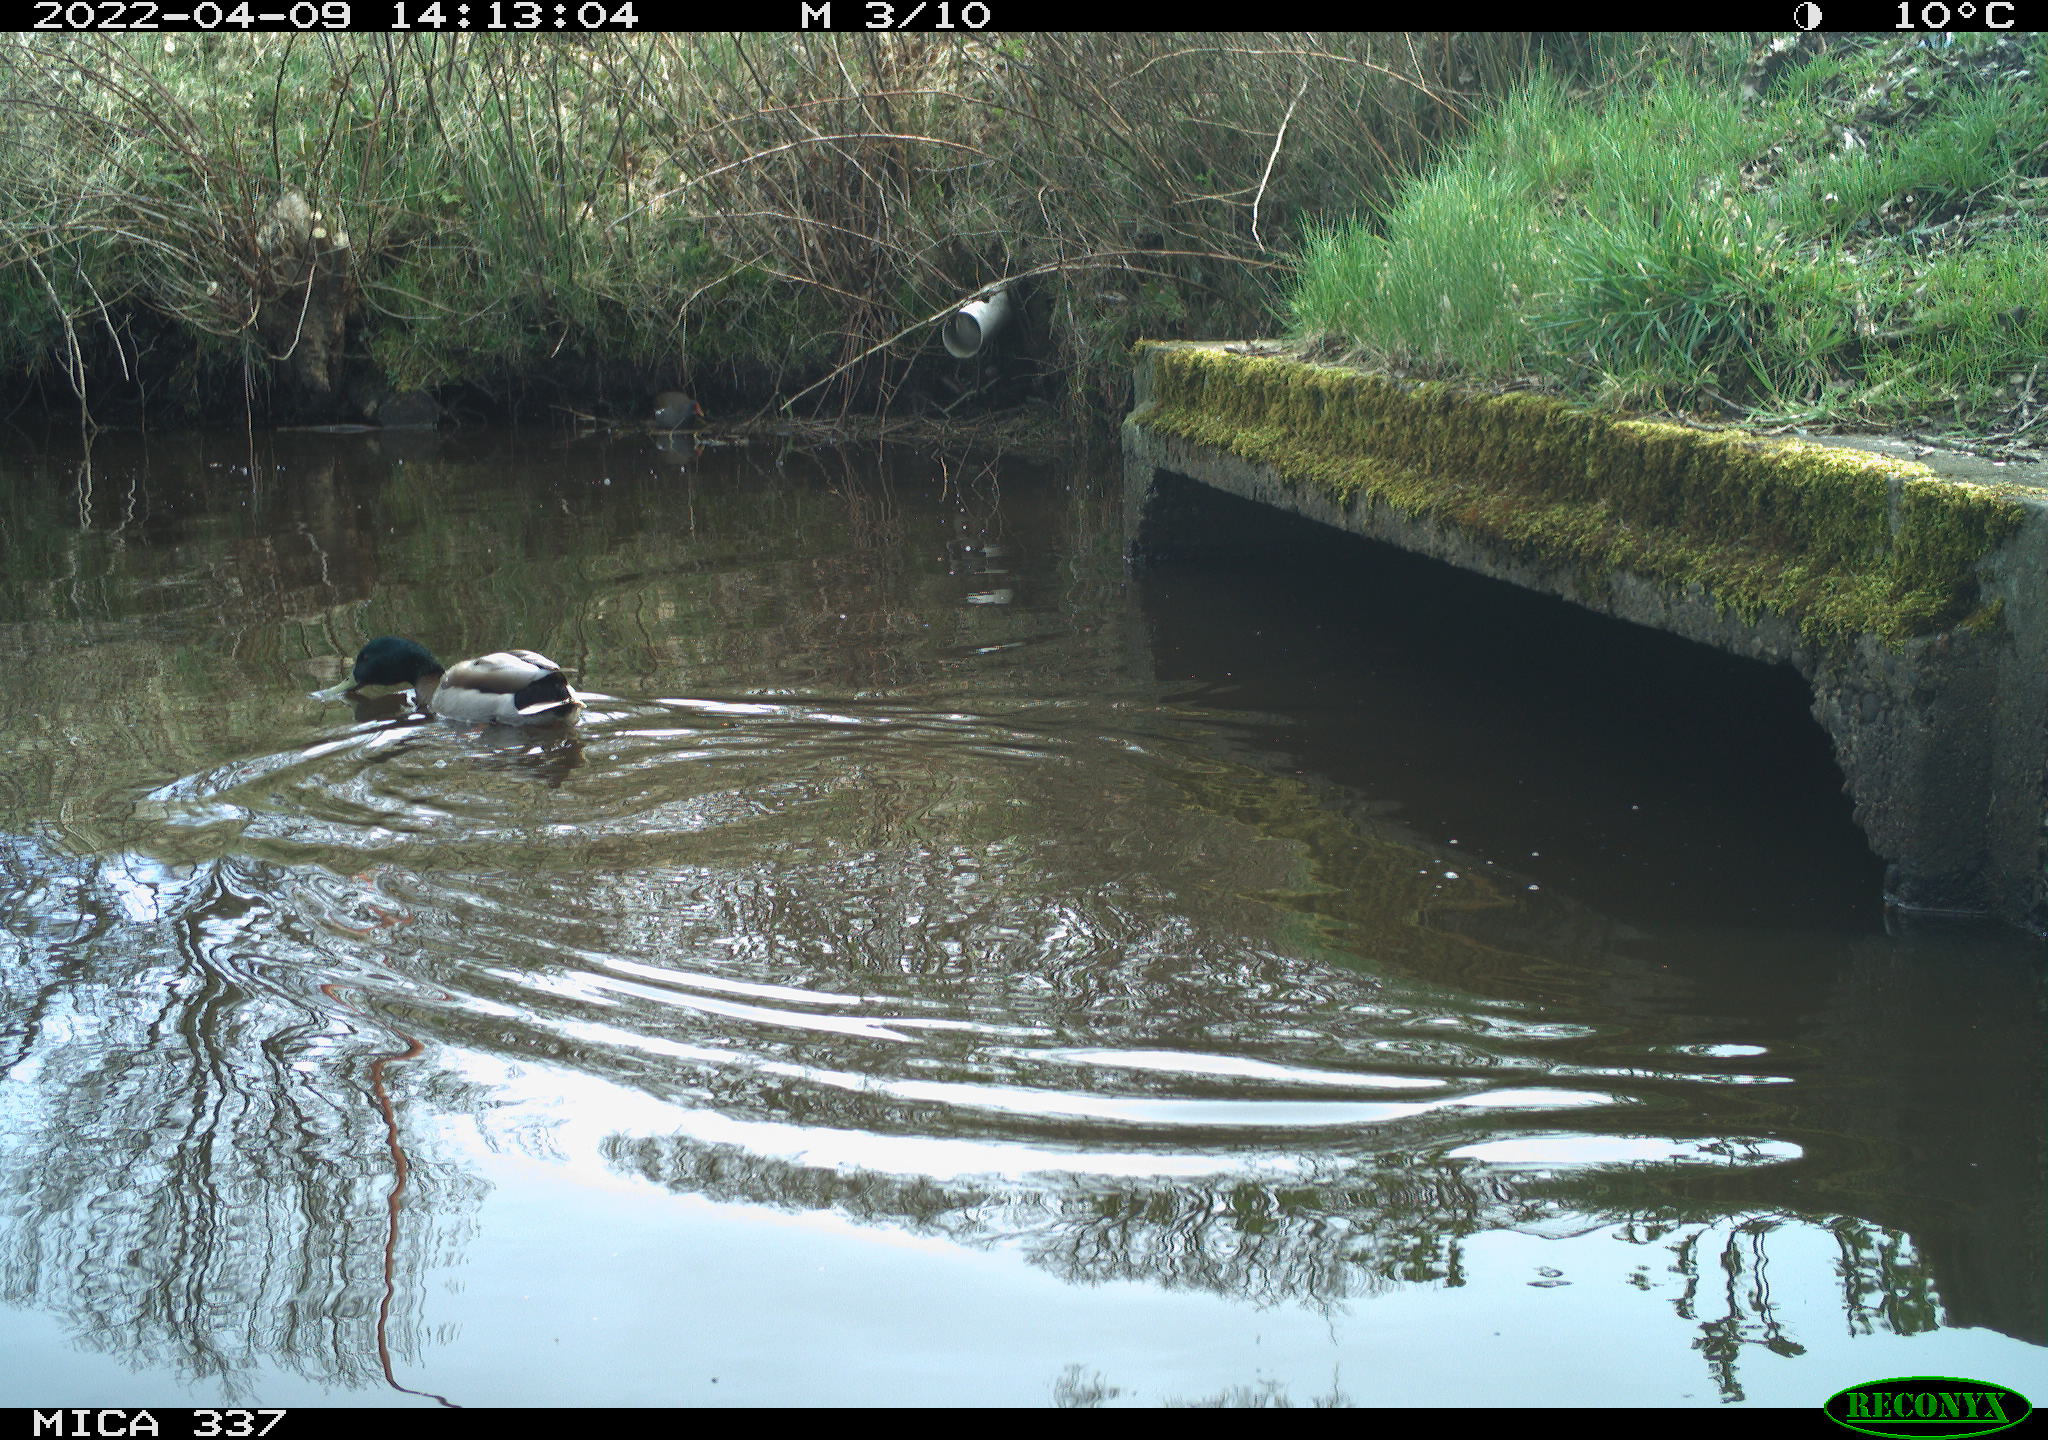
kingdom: Animalia
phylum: Chordata
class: Aves
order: Anseriformes
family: Anatidae
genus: Anas
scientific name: Anas platyrhynchos
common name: Mallard
